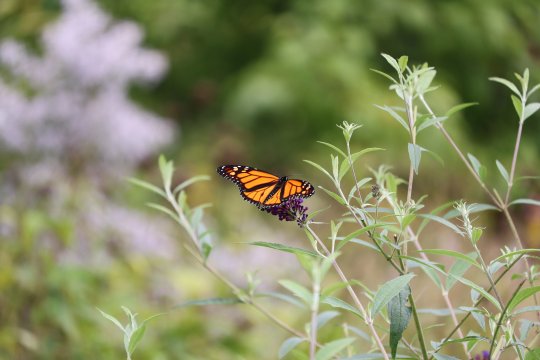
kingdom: Animalia
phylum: Arthropoda
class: Insecta
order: Lepidoptera
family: Nymphalidae
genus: Danaus
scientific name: Danaus plexippus
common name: Monarch
